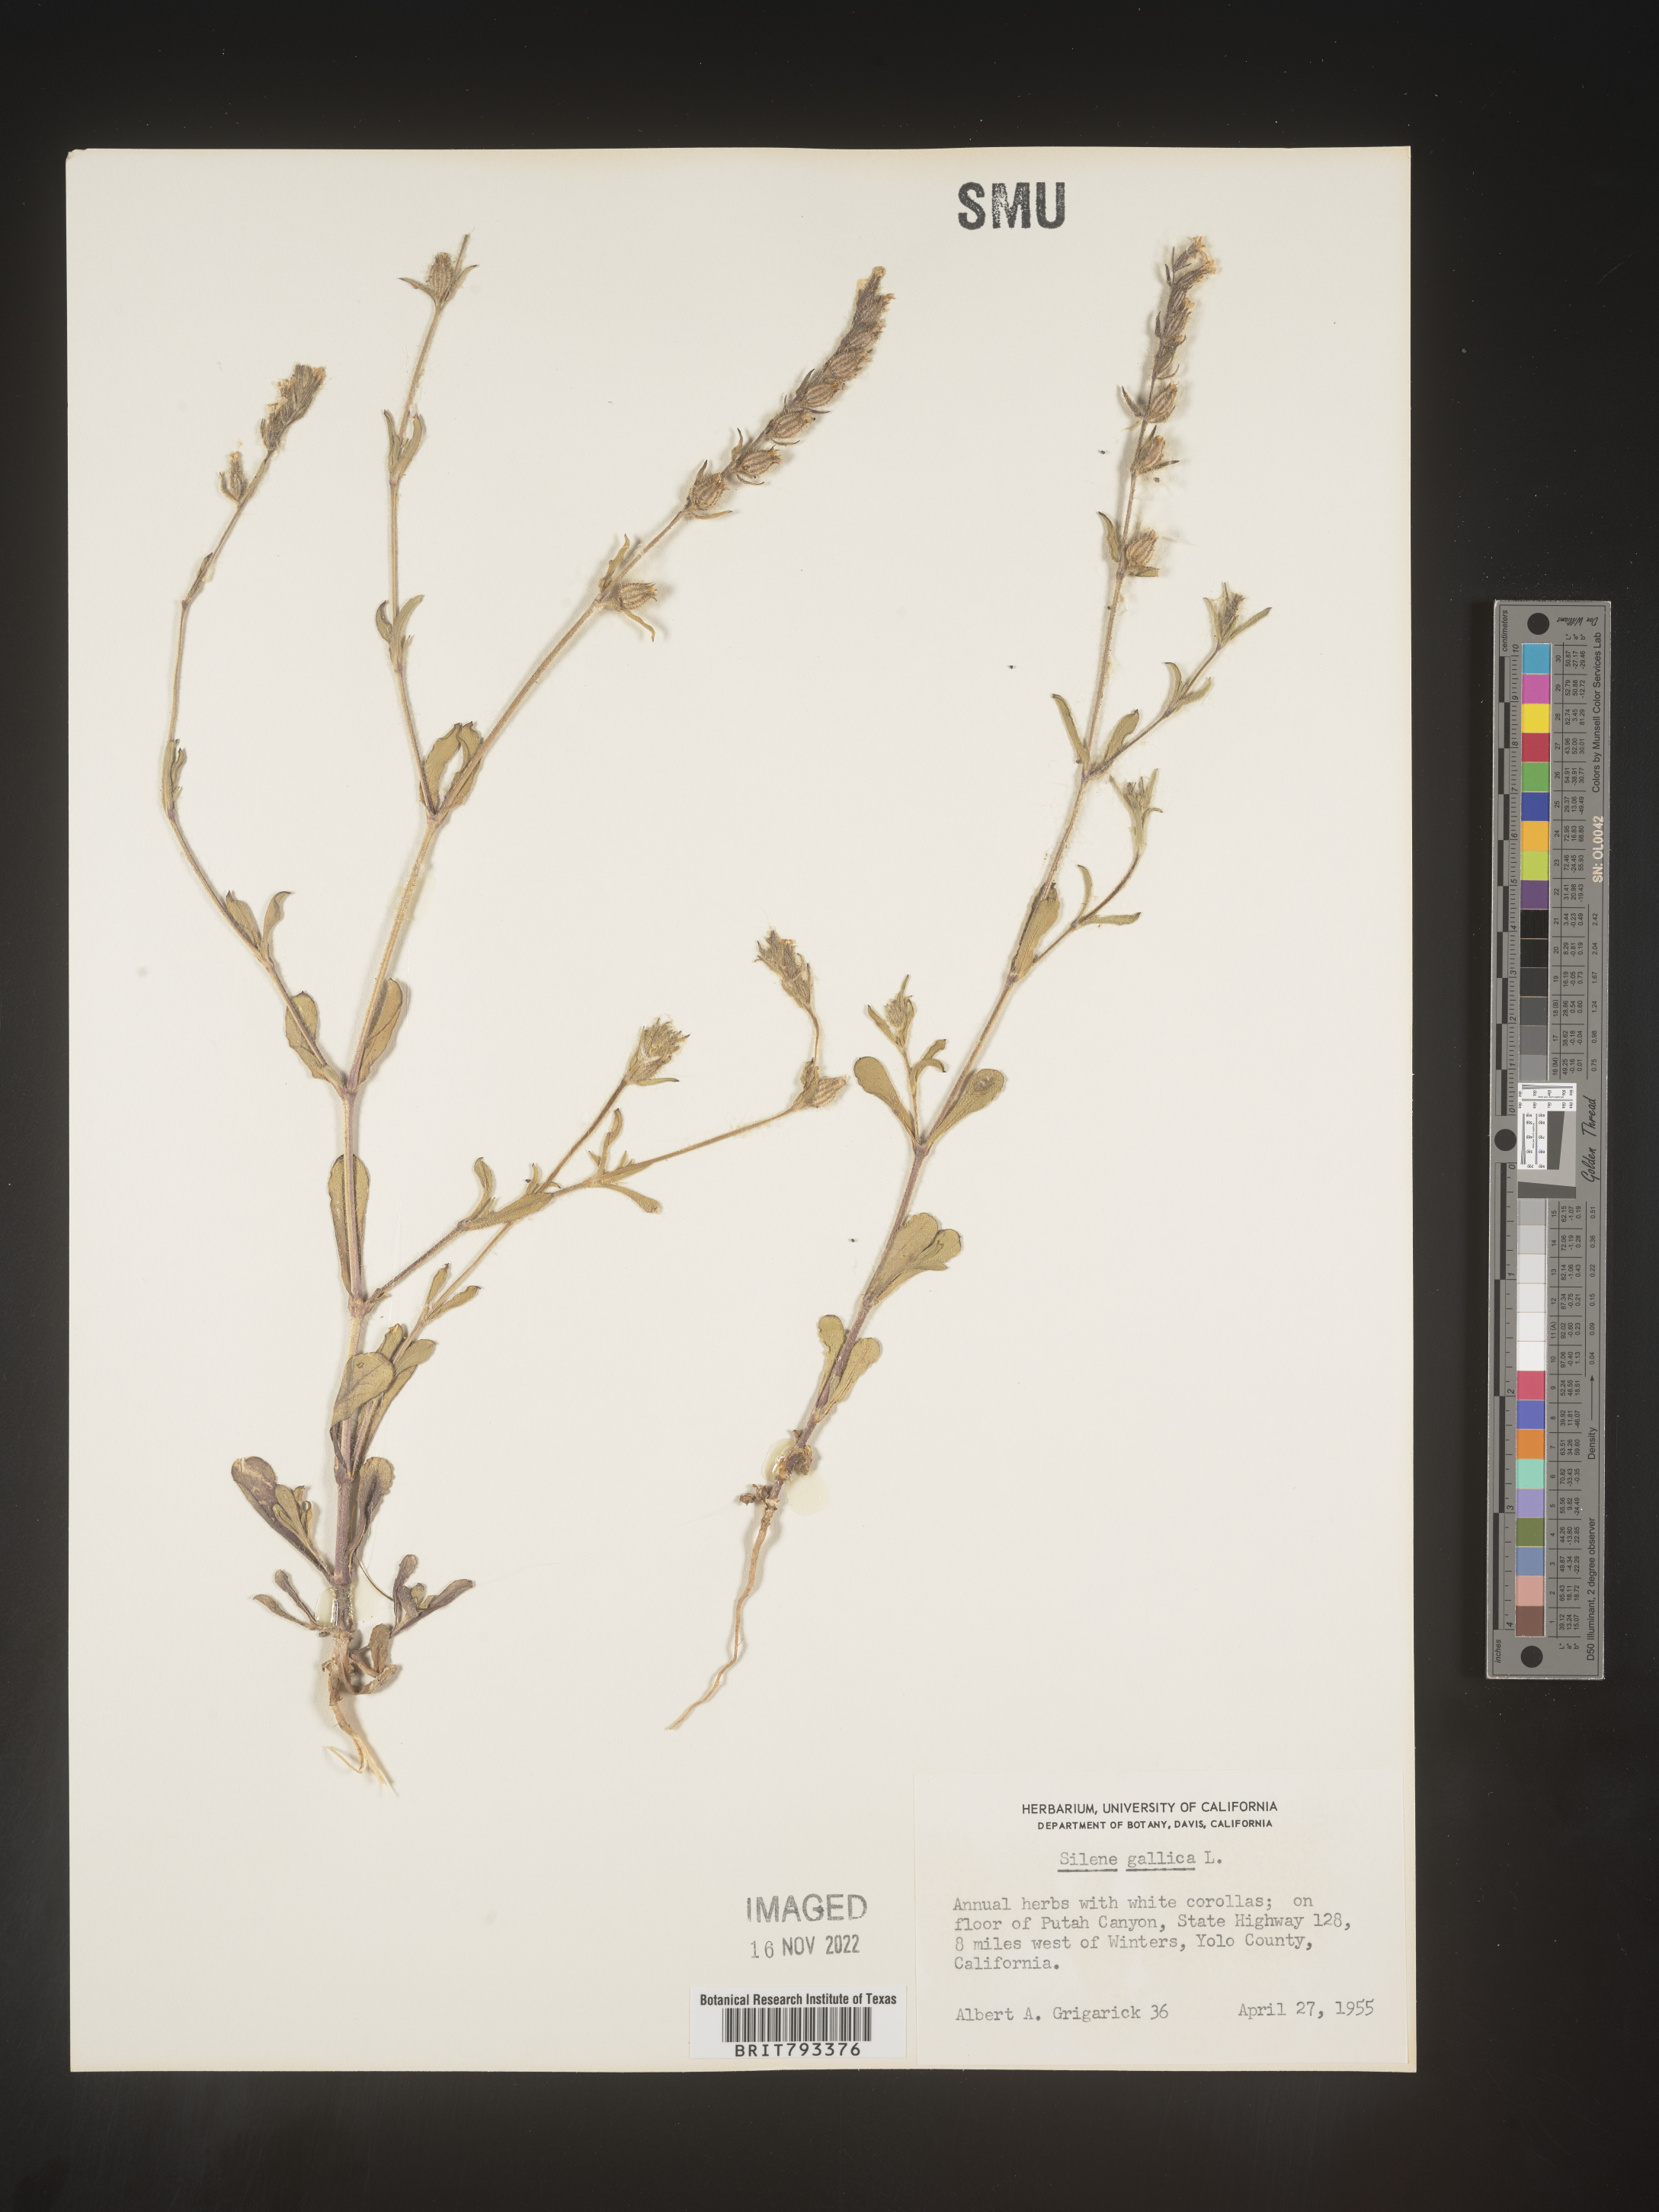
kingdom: Plantae
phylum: Tracheophyta
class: Magnoliopsida
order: Caryophyllales
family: Caryophyllaceae
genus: Silene
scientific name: Silene gallica
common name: Small-flowered catchfly
